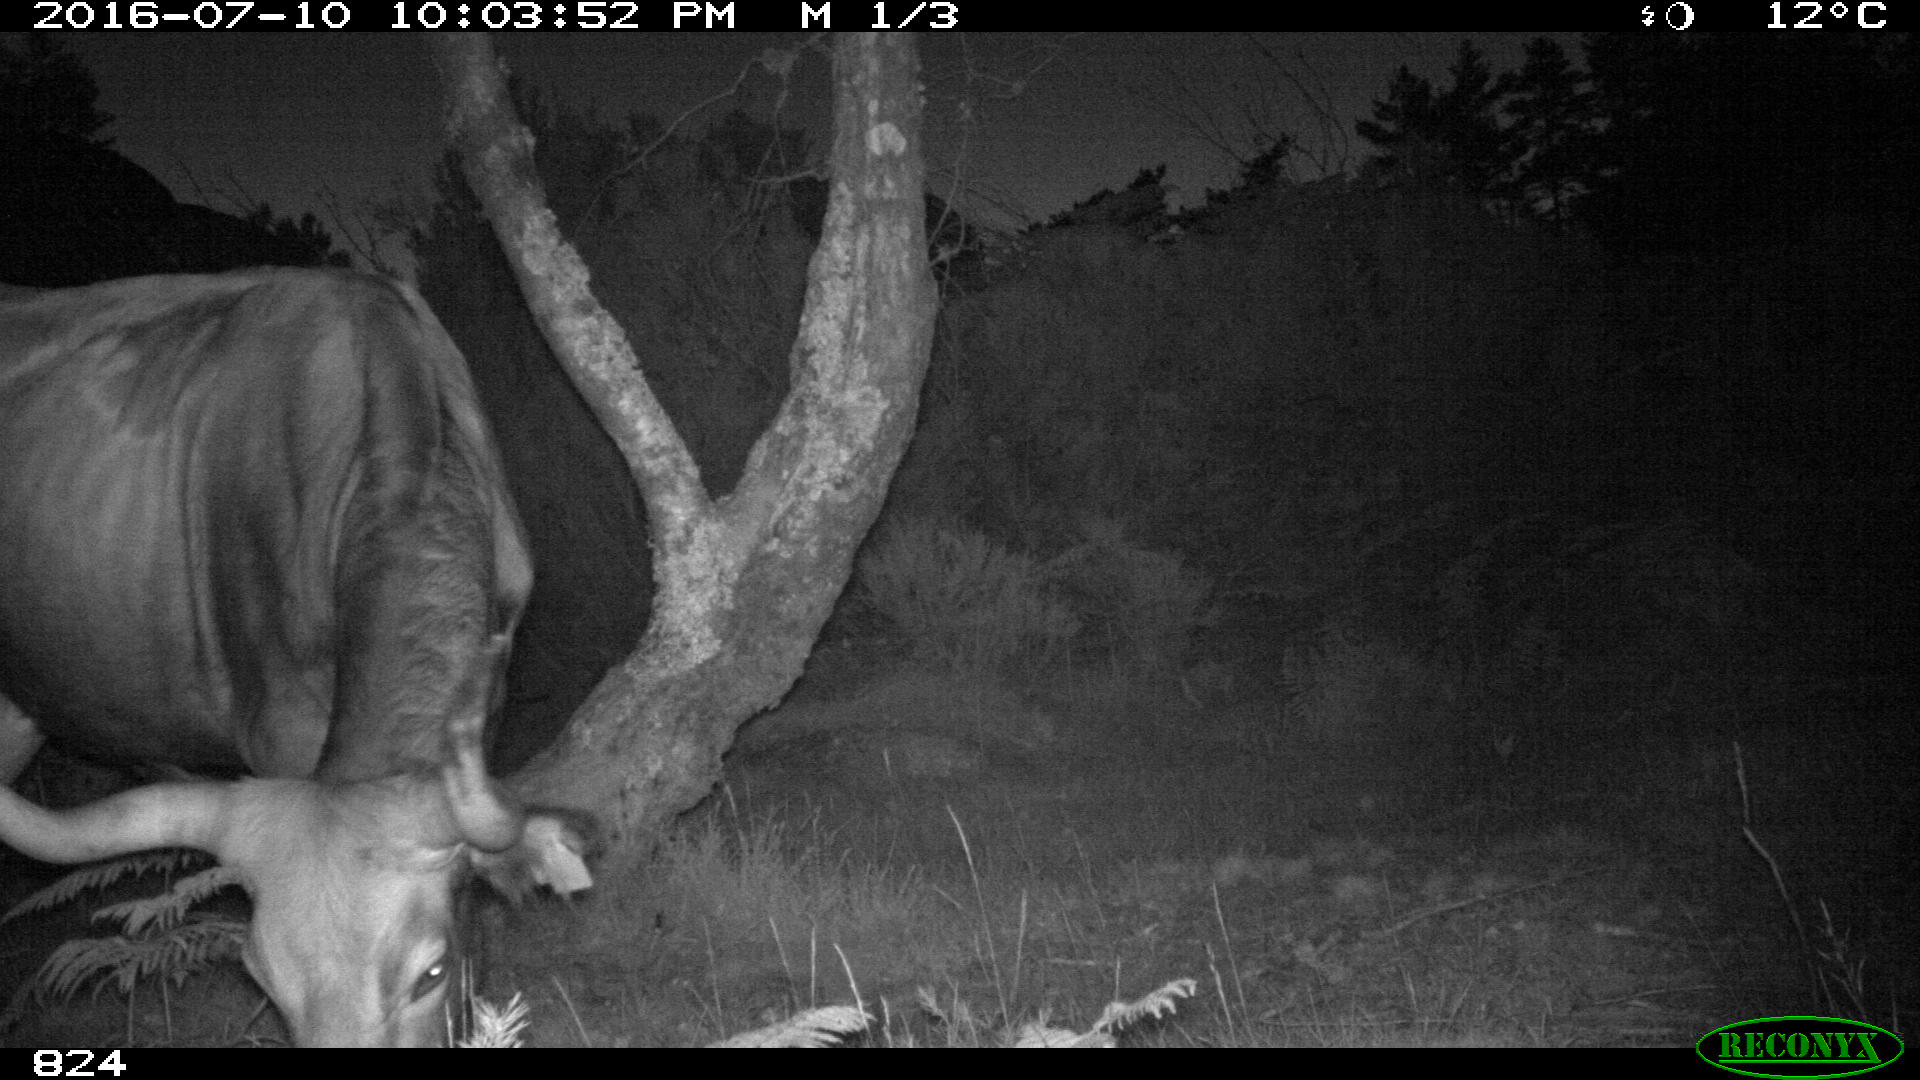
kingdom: Animalia
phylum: Chordata
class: Mammalia
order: Artiodactyla
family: Bovidae
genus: Bos
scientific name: Bos taurus
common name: Domesticated cattle
